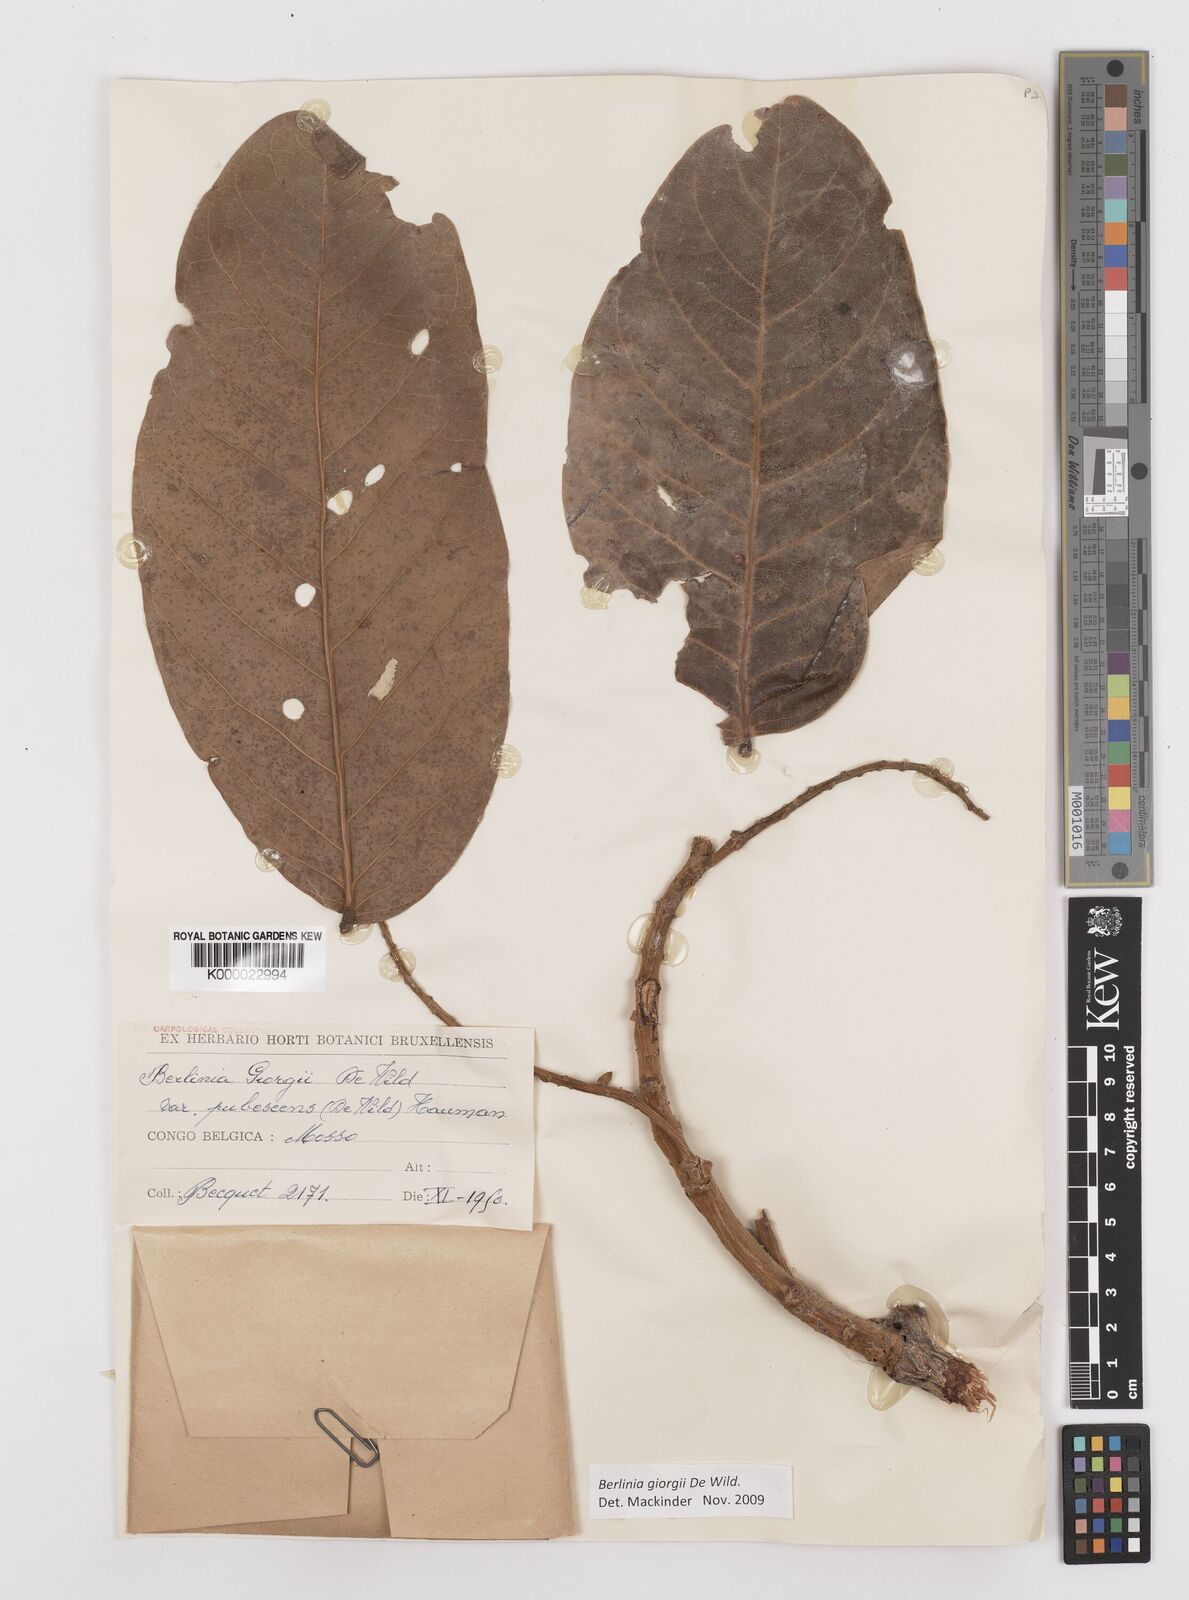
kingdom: Plantae
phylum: Tracheophyta
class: Magnoliopsida
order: Fabales
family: Fabaceae
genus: Berlinia
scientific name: Berlinia giorgii
